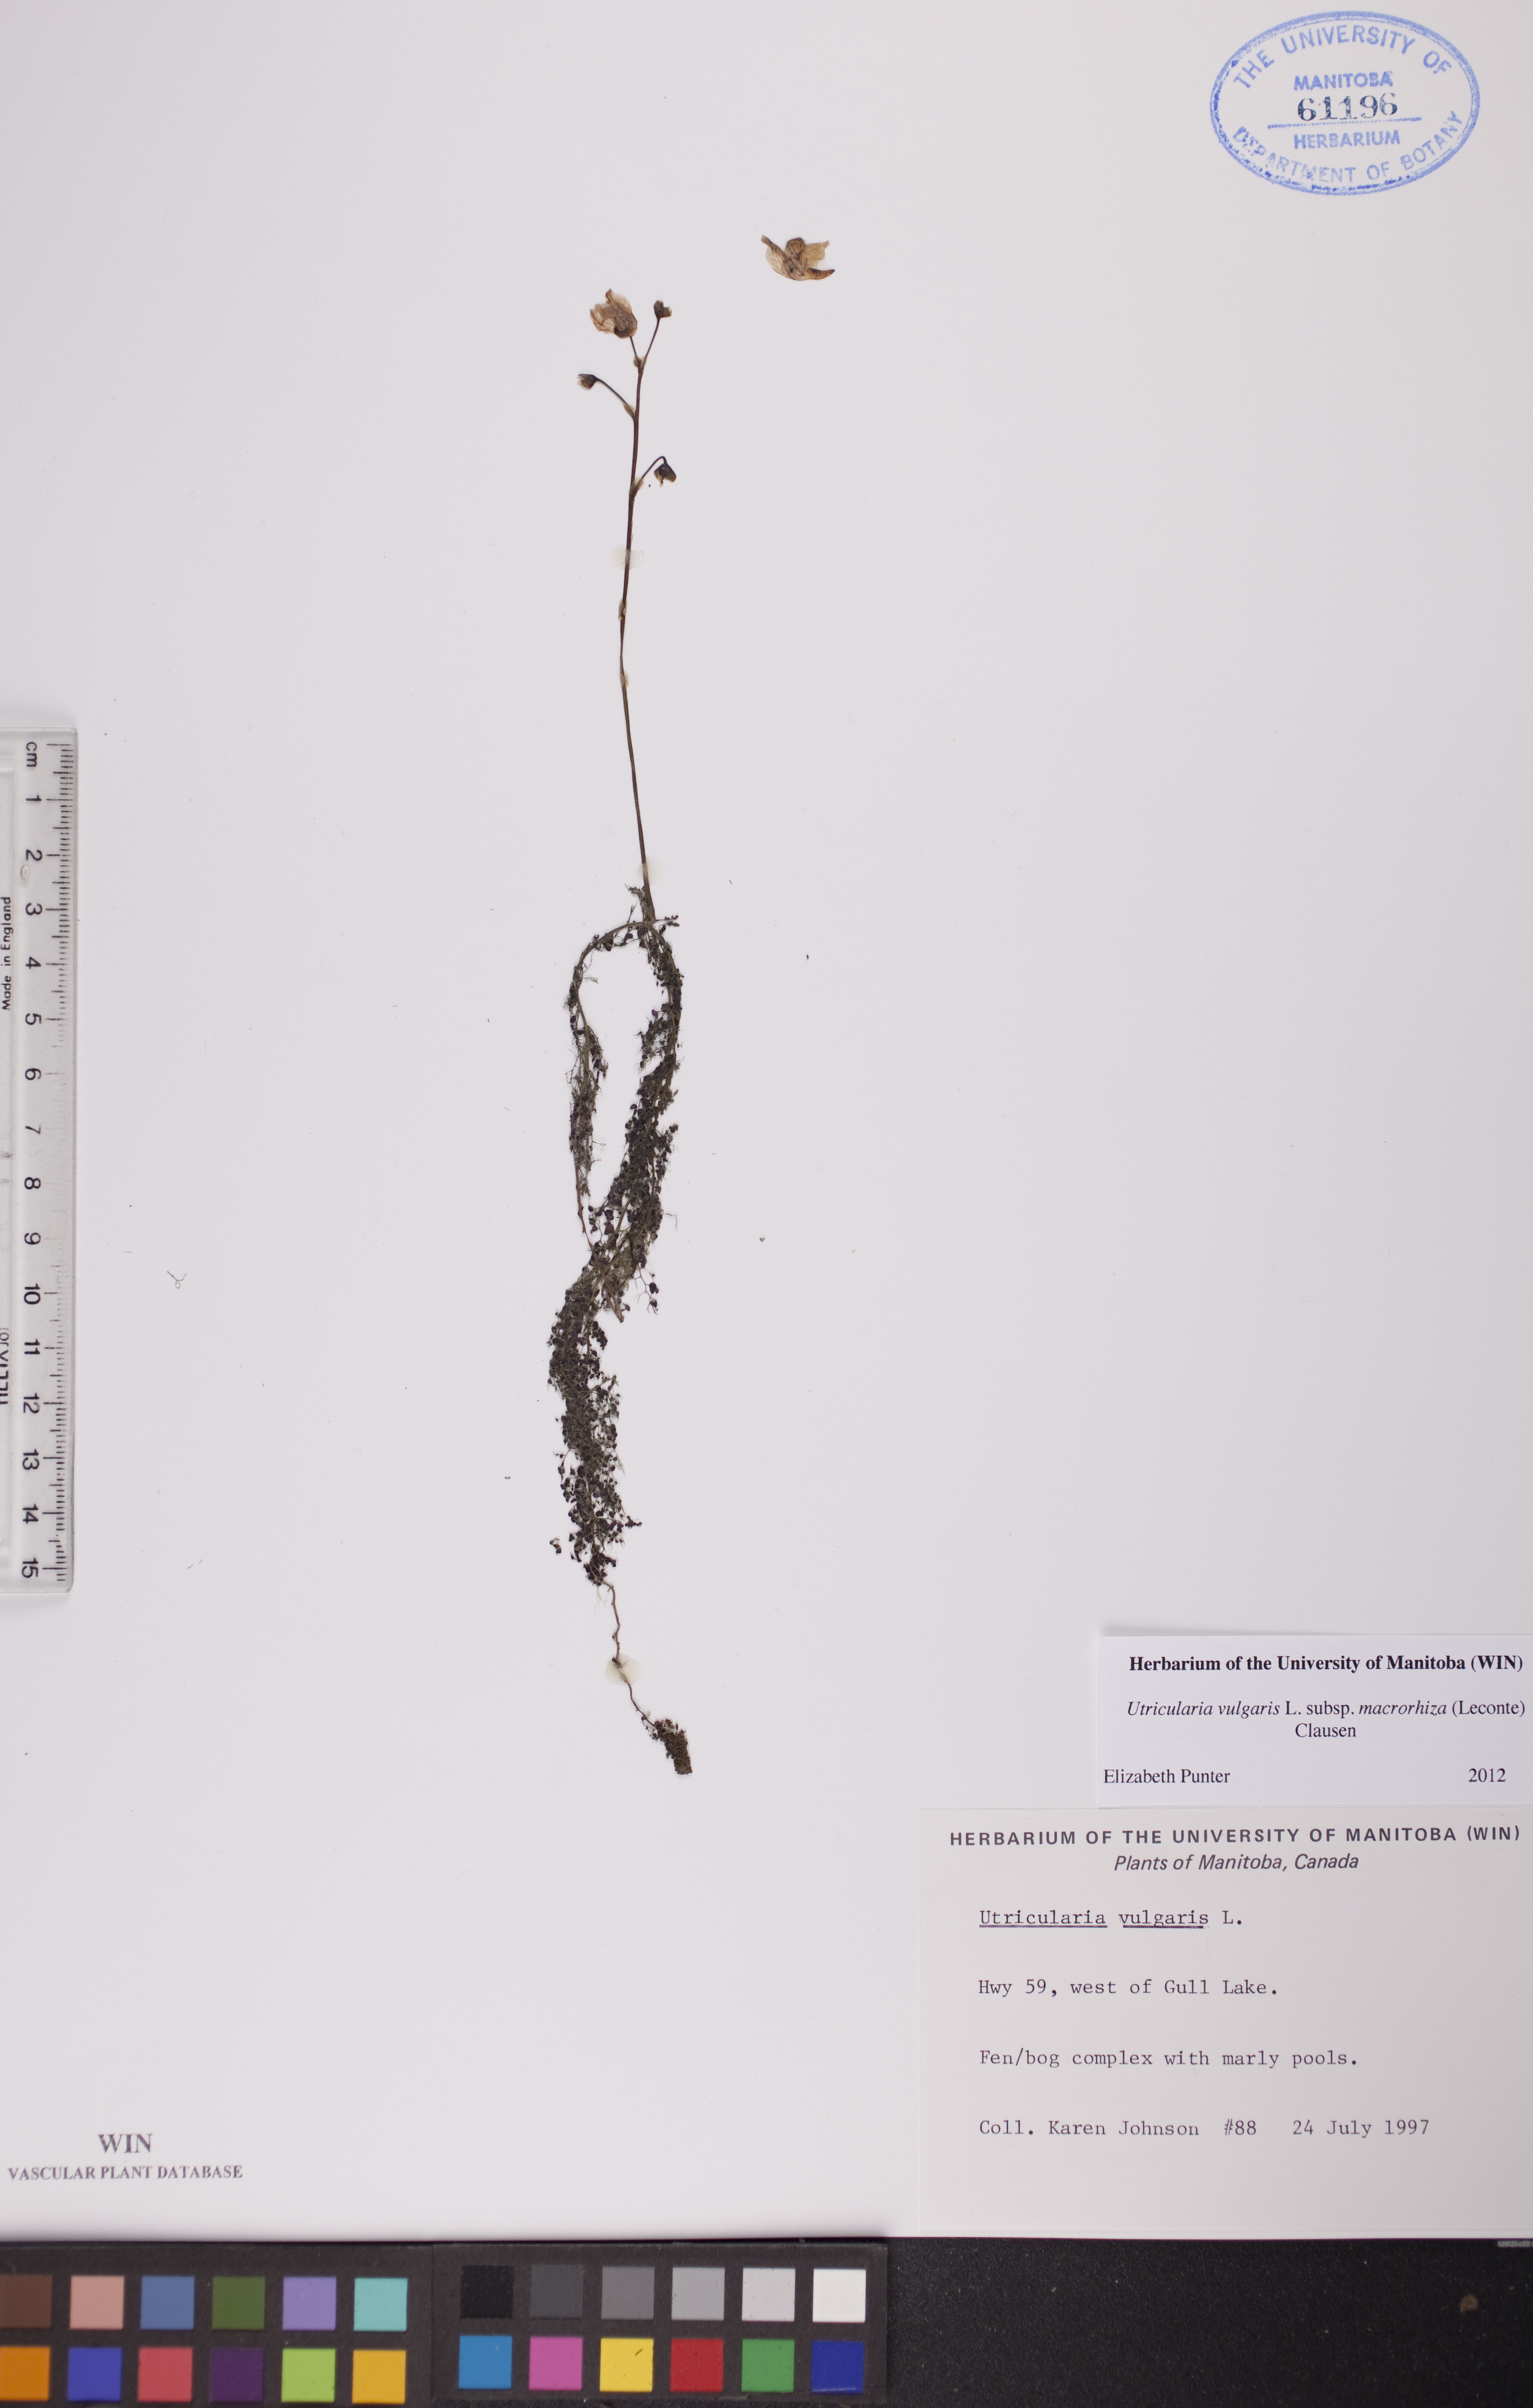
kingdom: Plantae
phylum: Tracheophyta
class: Magnoliopsida
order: Lamiales
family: Lentibulariaceae
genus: Utricularia
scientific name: Utricularia macrorhiza
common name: Common bladderwort
